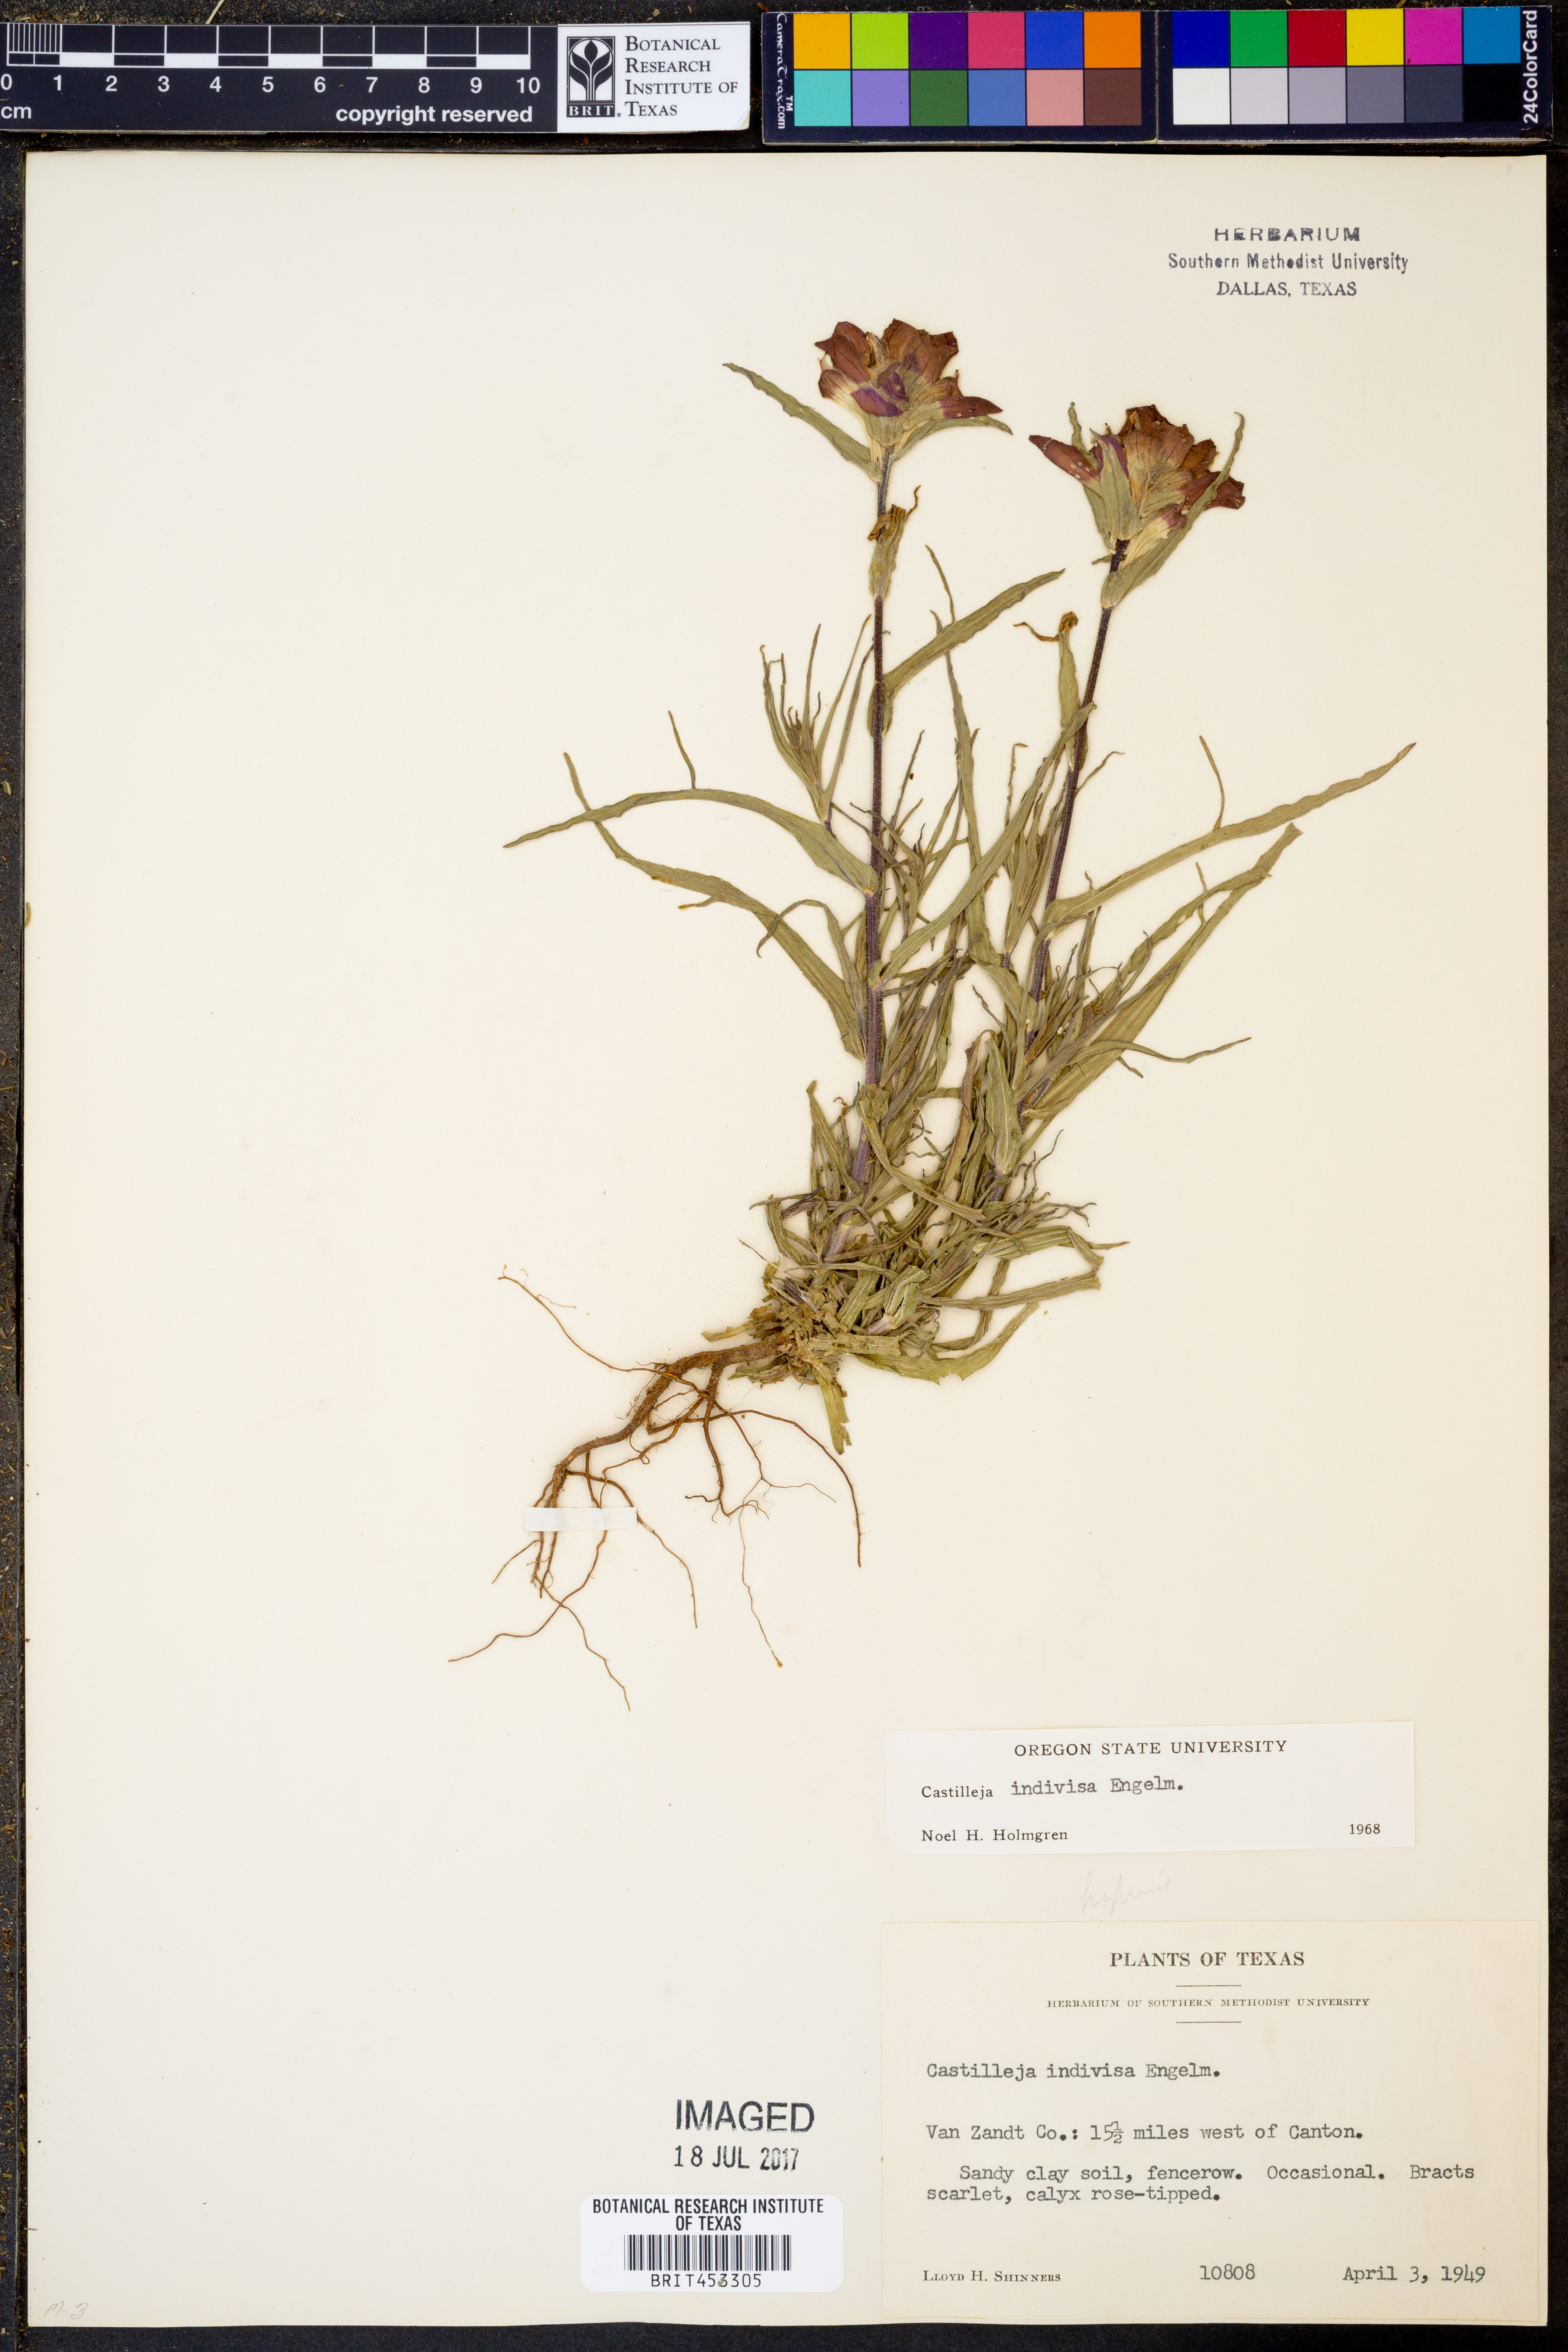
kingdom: Plantae
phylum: Tracheophyta
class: Magnoliopsida
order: Lamiales
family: Orobanchaceae
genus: Castilleja
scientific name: Castilleja indivisa
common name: Texas paintbrush
